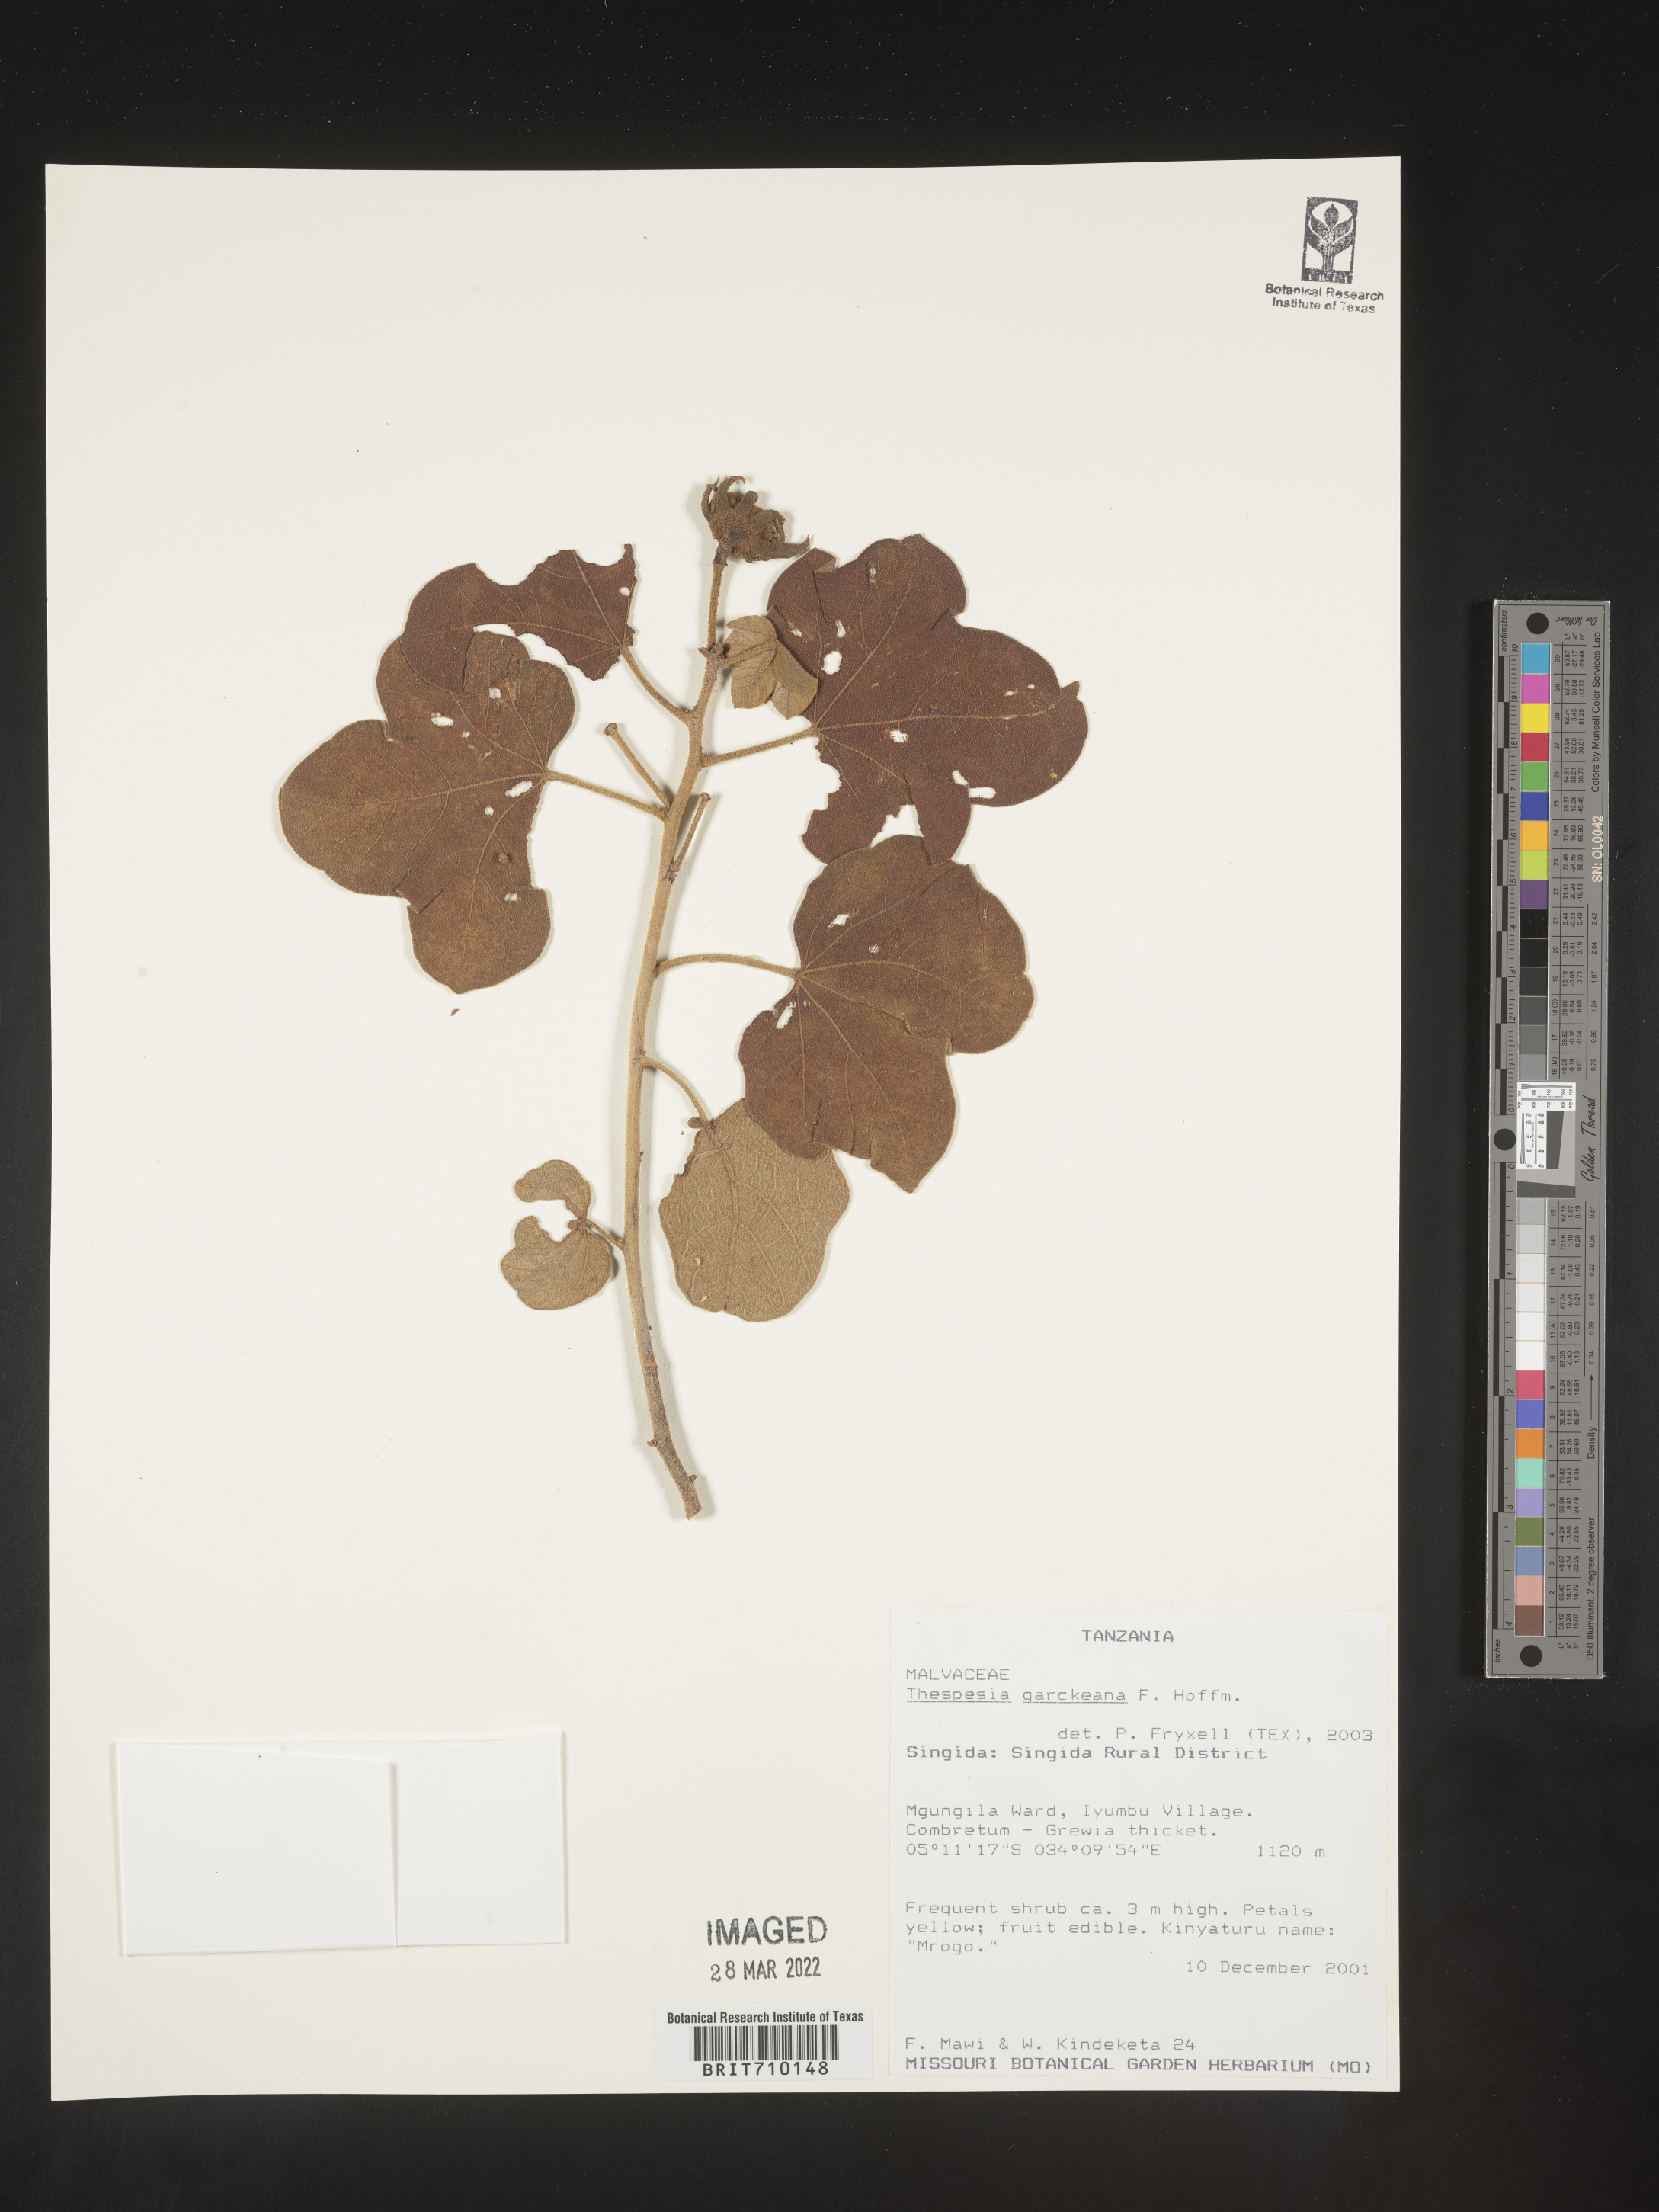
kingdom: Plantae
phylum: Tracheophyta
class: Magnoliopsida
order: Malvales
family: Malvaceae
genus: Thespesia
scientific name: Thespesia
